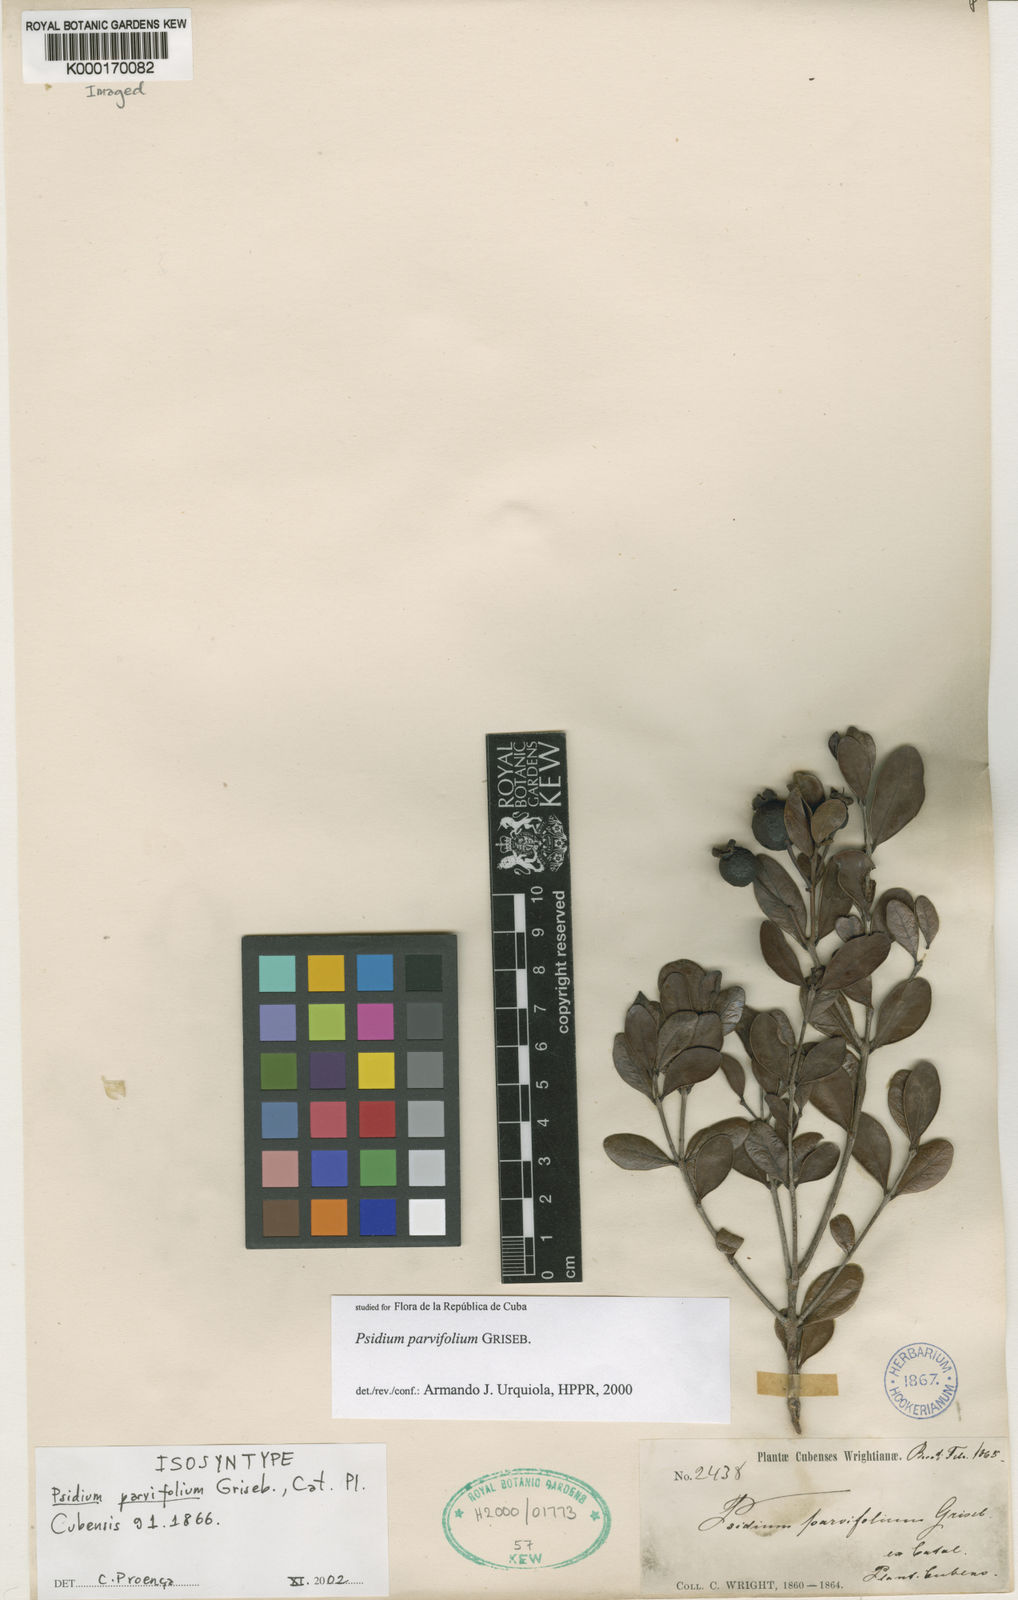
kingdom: Plantae
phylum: Tracheophyta
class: Magnoliopsida
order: Myrtales
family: Myrtaceae
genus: Psidium
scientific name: Psidium parvifolium
